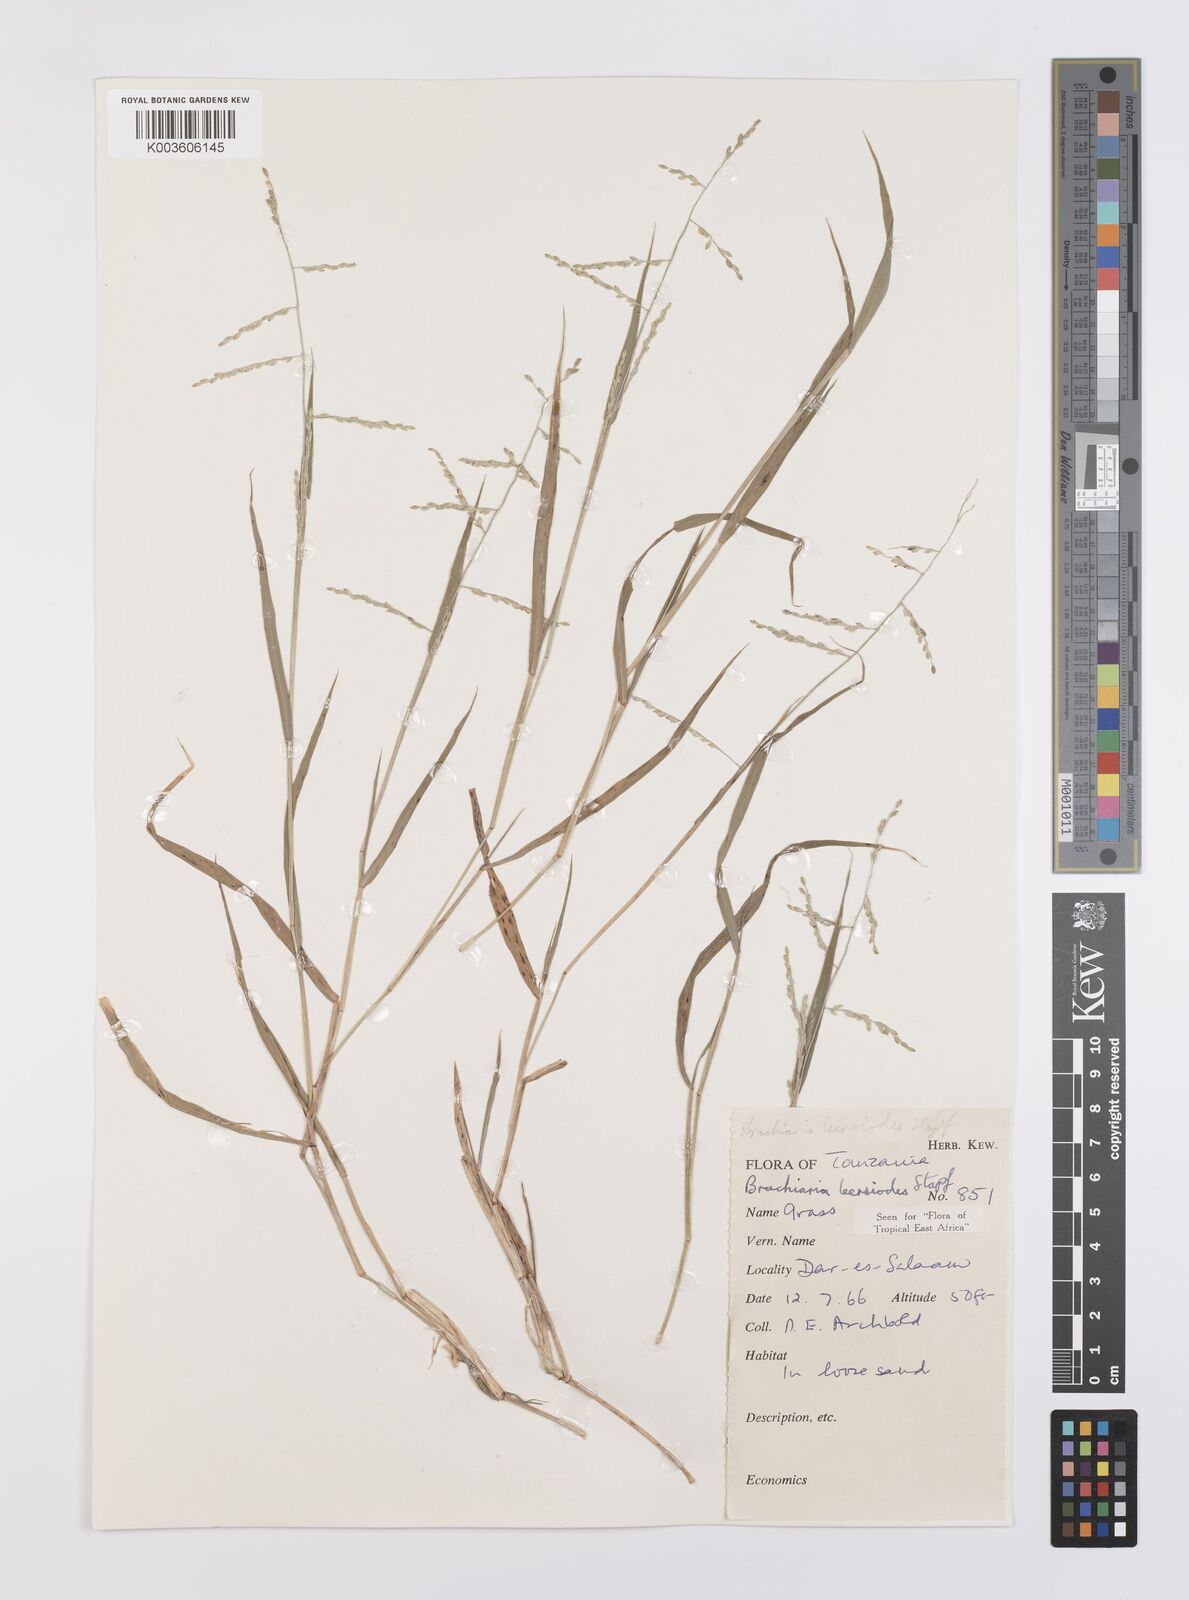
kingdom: Plantae
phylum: Tracheophyta
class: Liliopsida
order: Poales
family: Poaceae
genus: Urochloa
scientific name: Urochloa leersioides
